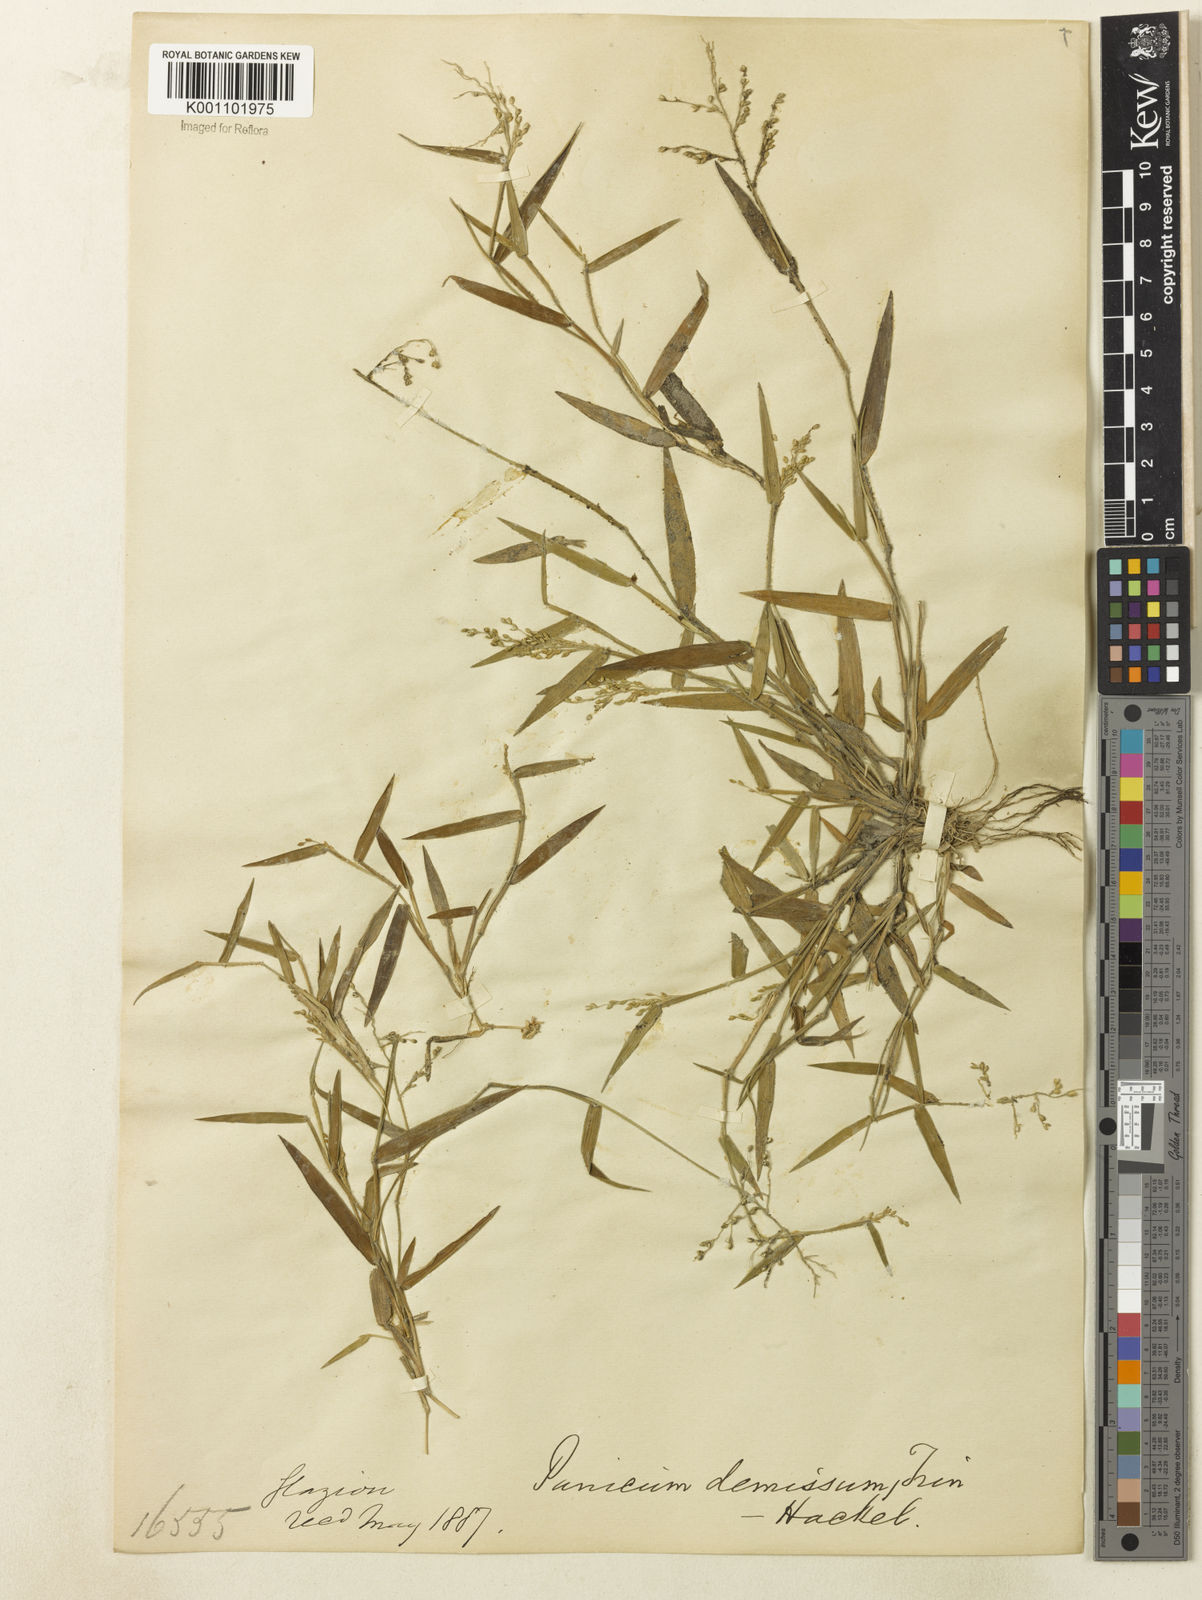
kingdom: Plantae
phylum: Tracheophyta
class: Liliopsida
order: Poales
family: Poaceae
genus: Dichanthelium
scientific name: Dichanthelium sabulorum
